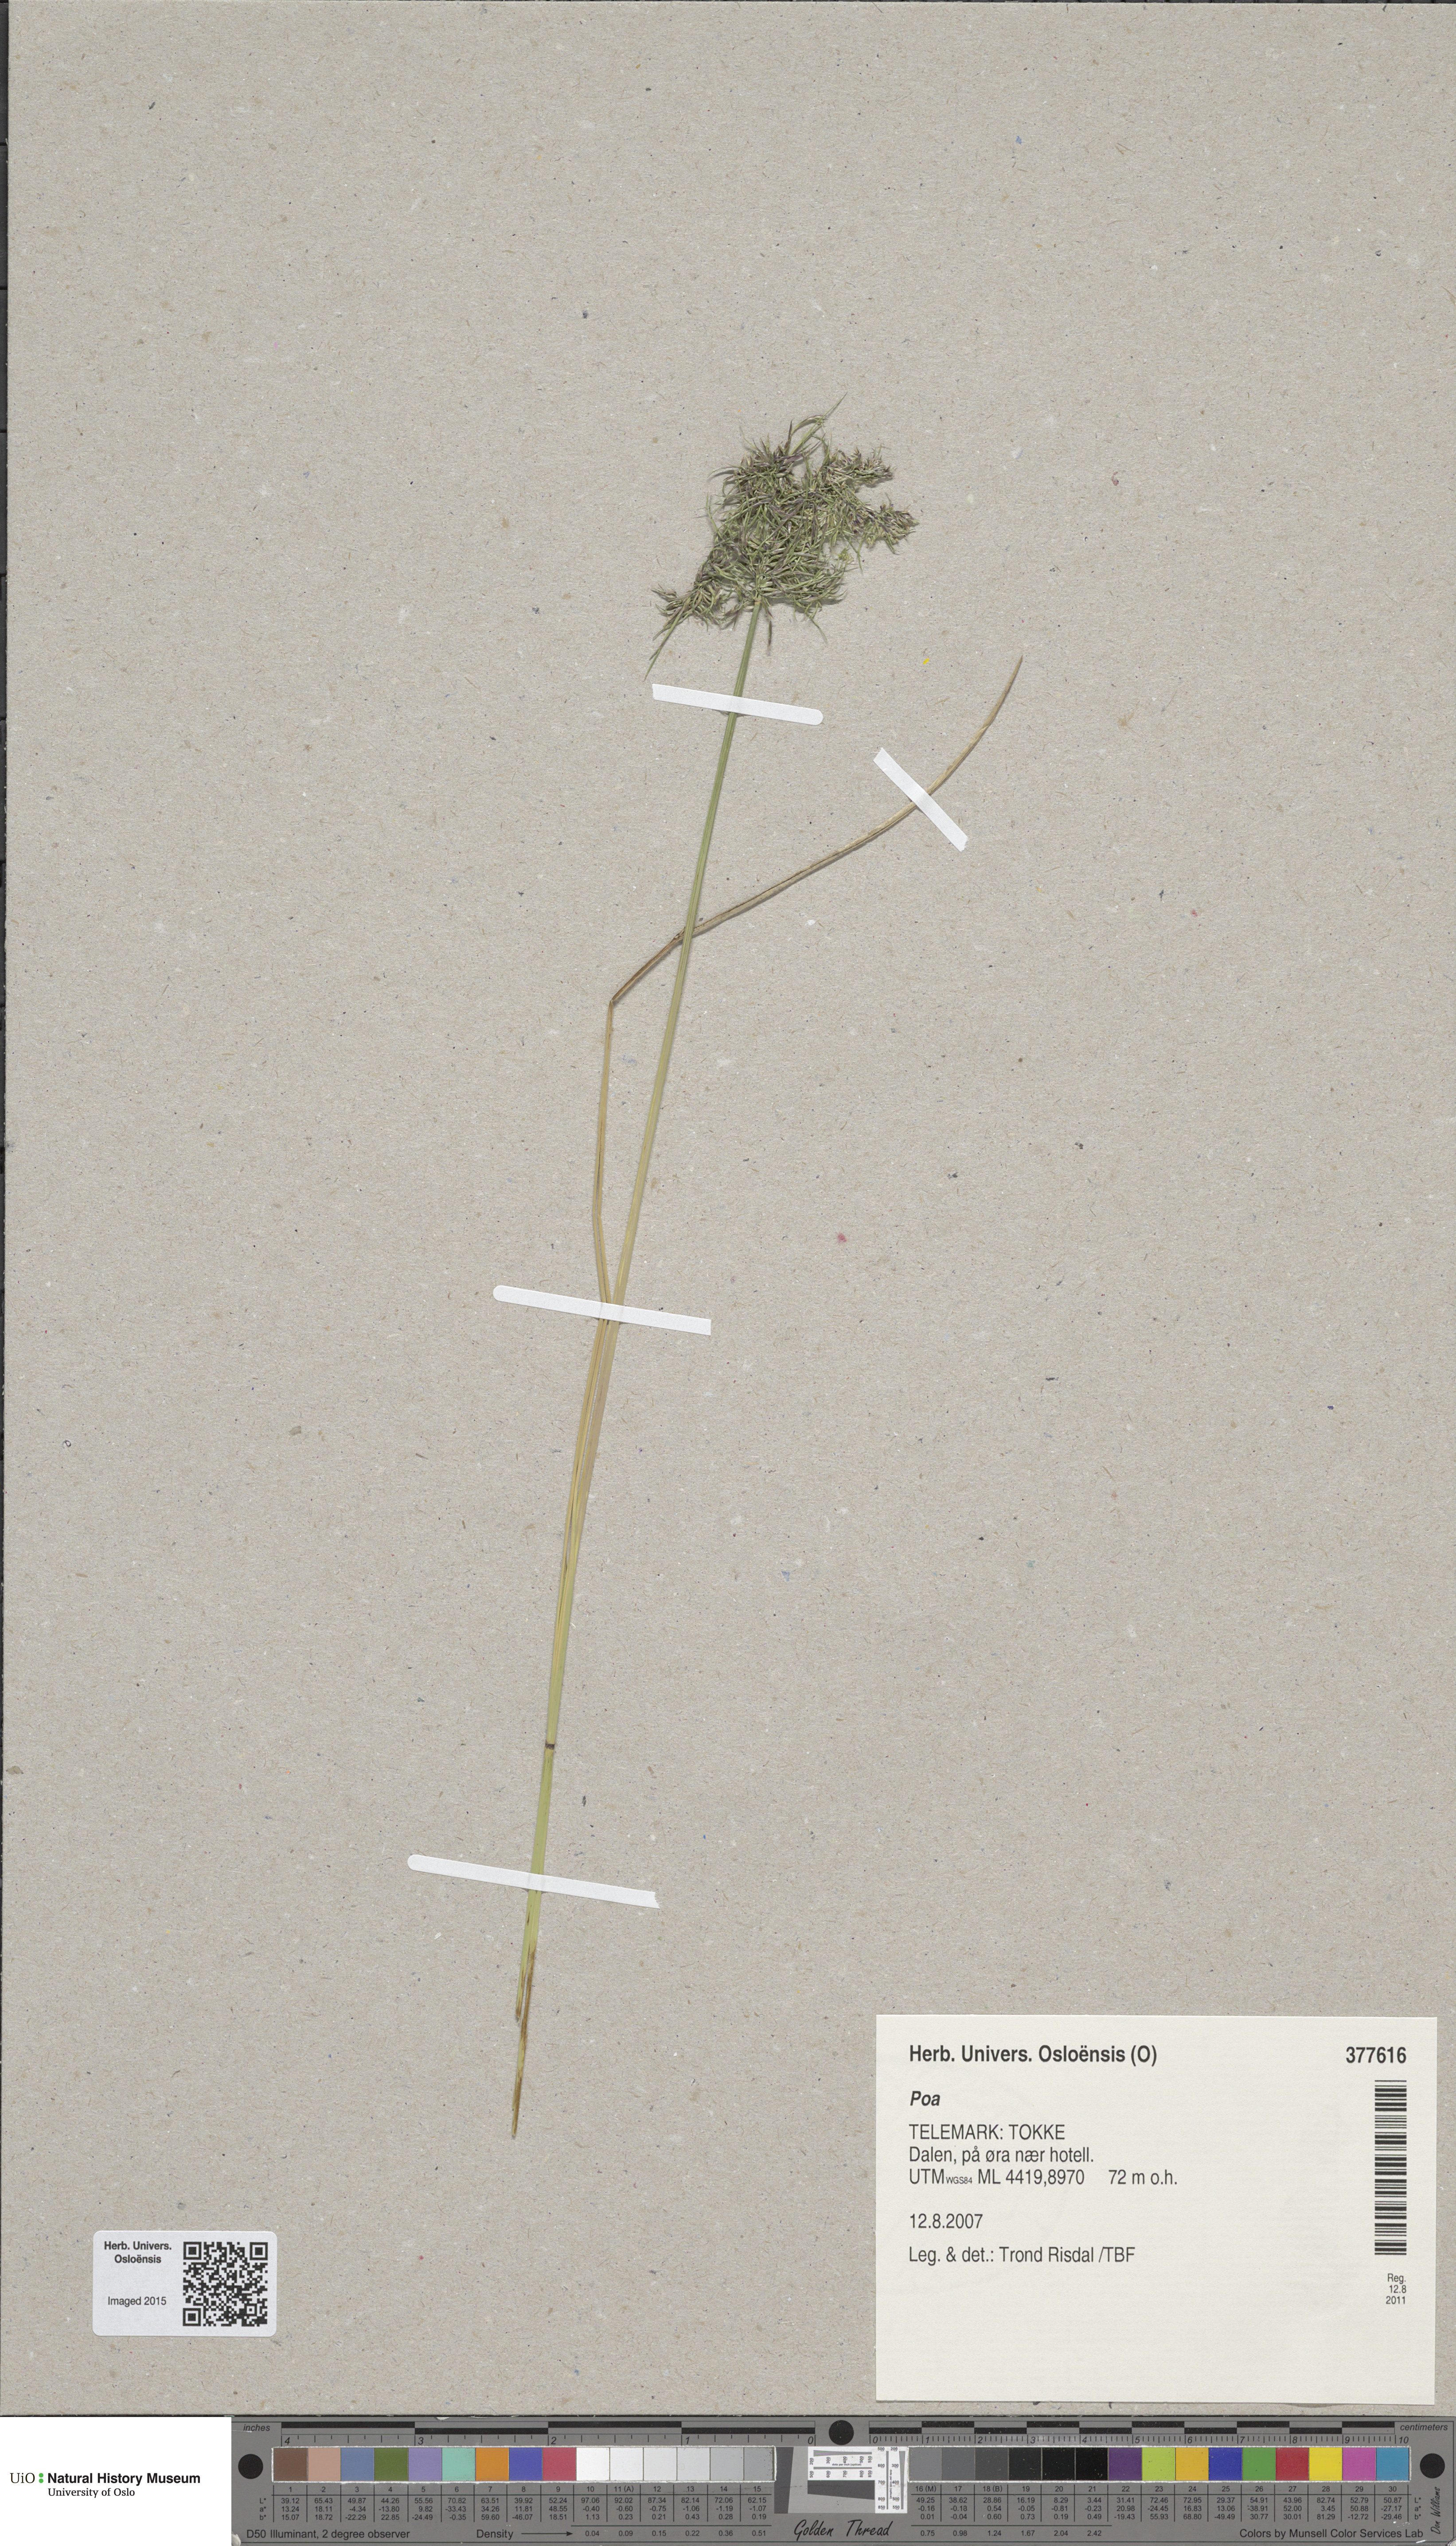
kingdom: Plantae
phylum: Tracheophyta
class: Liliopsida
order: Poales
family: Poaceae
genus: Poa
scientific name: Poa
